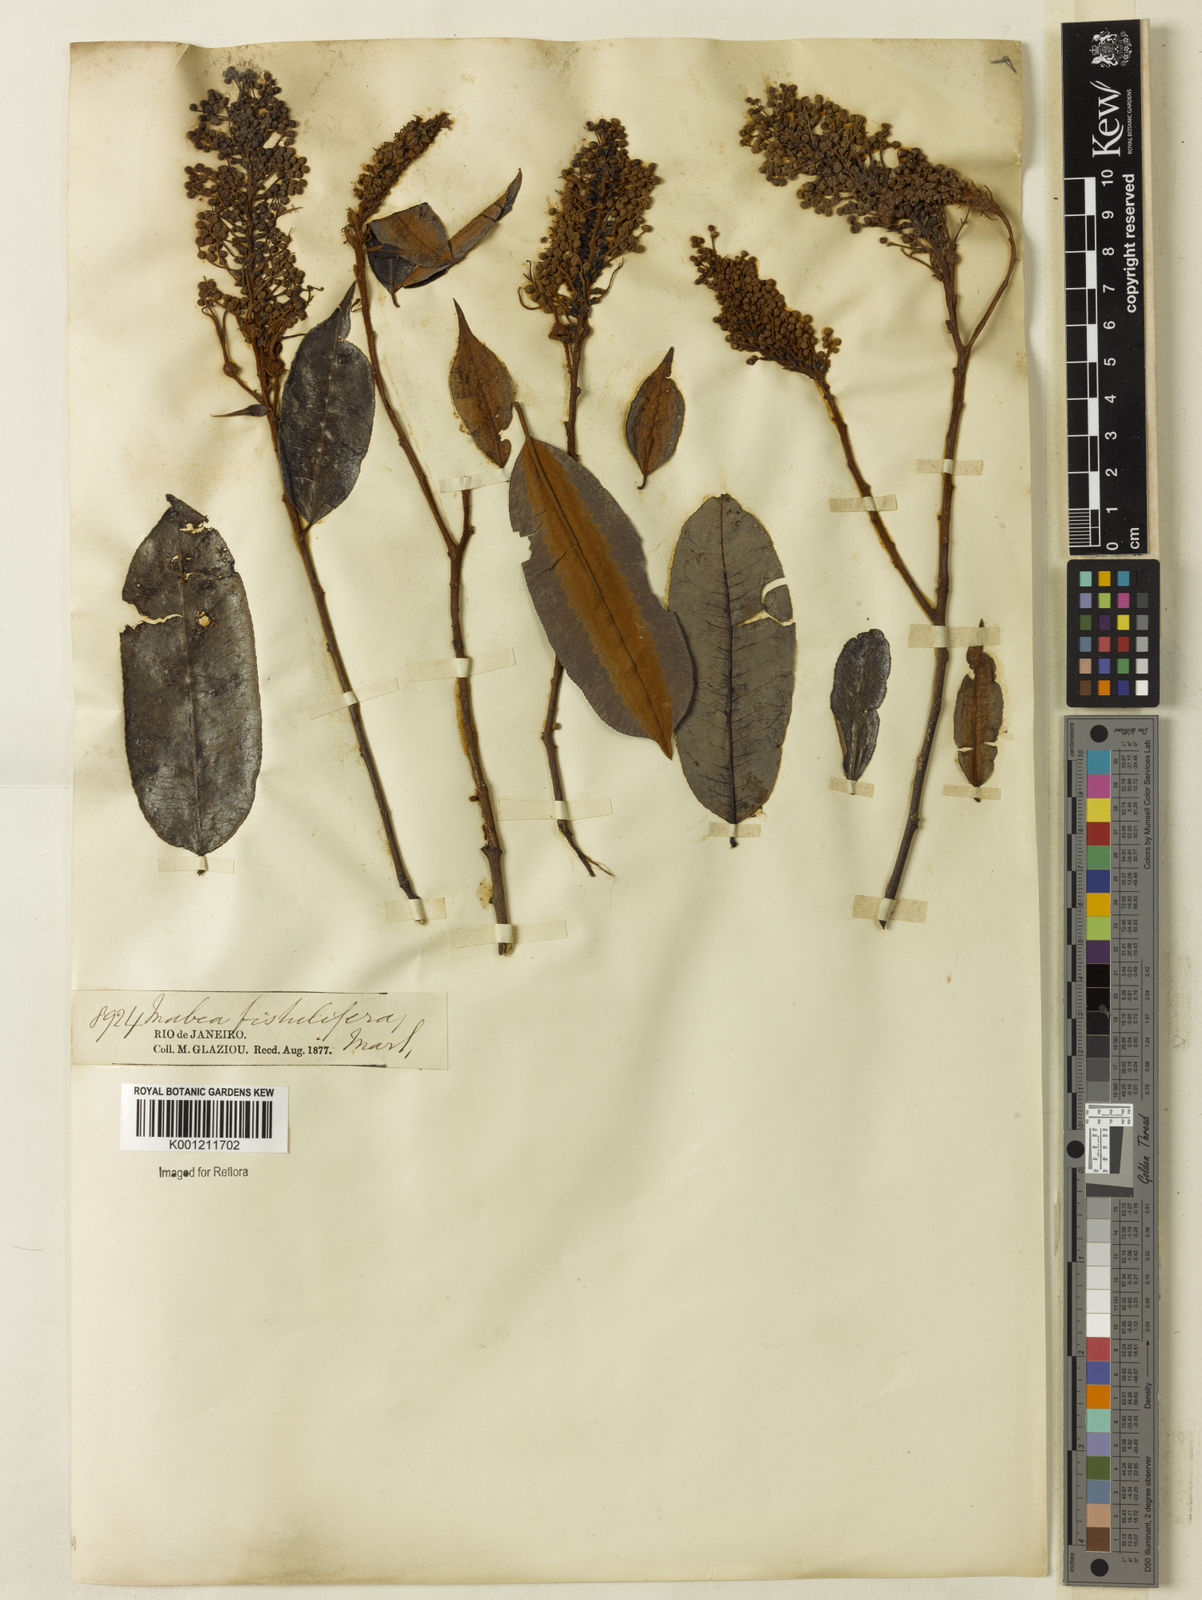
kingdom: Plantae
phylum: Tracheophyta
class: Magnoliopsida
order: Malpighiales
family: Euphorbiaceae
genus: Mabea
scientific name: Mabea fistulifera
